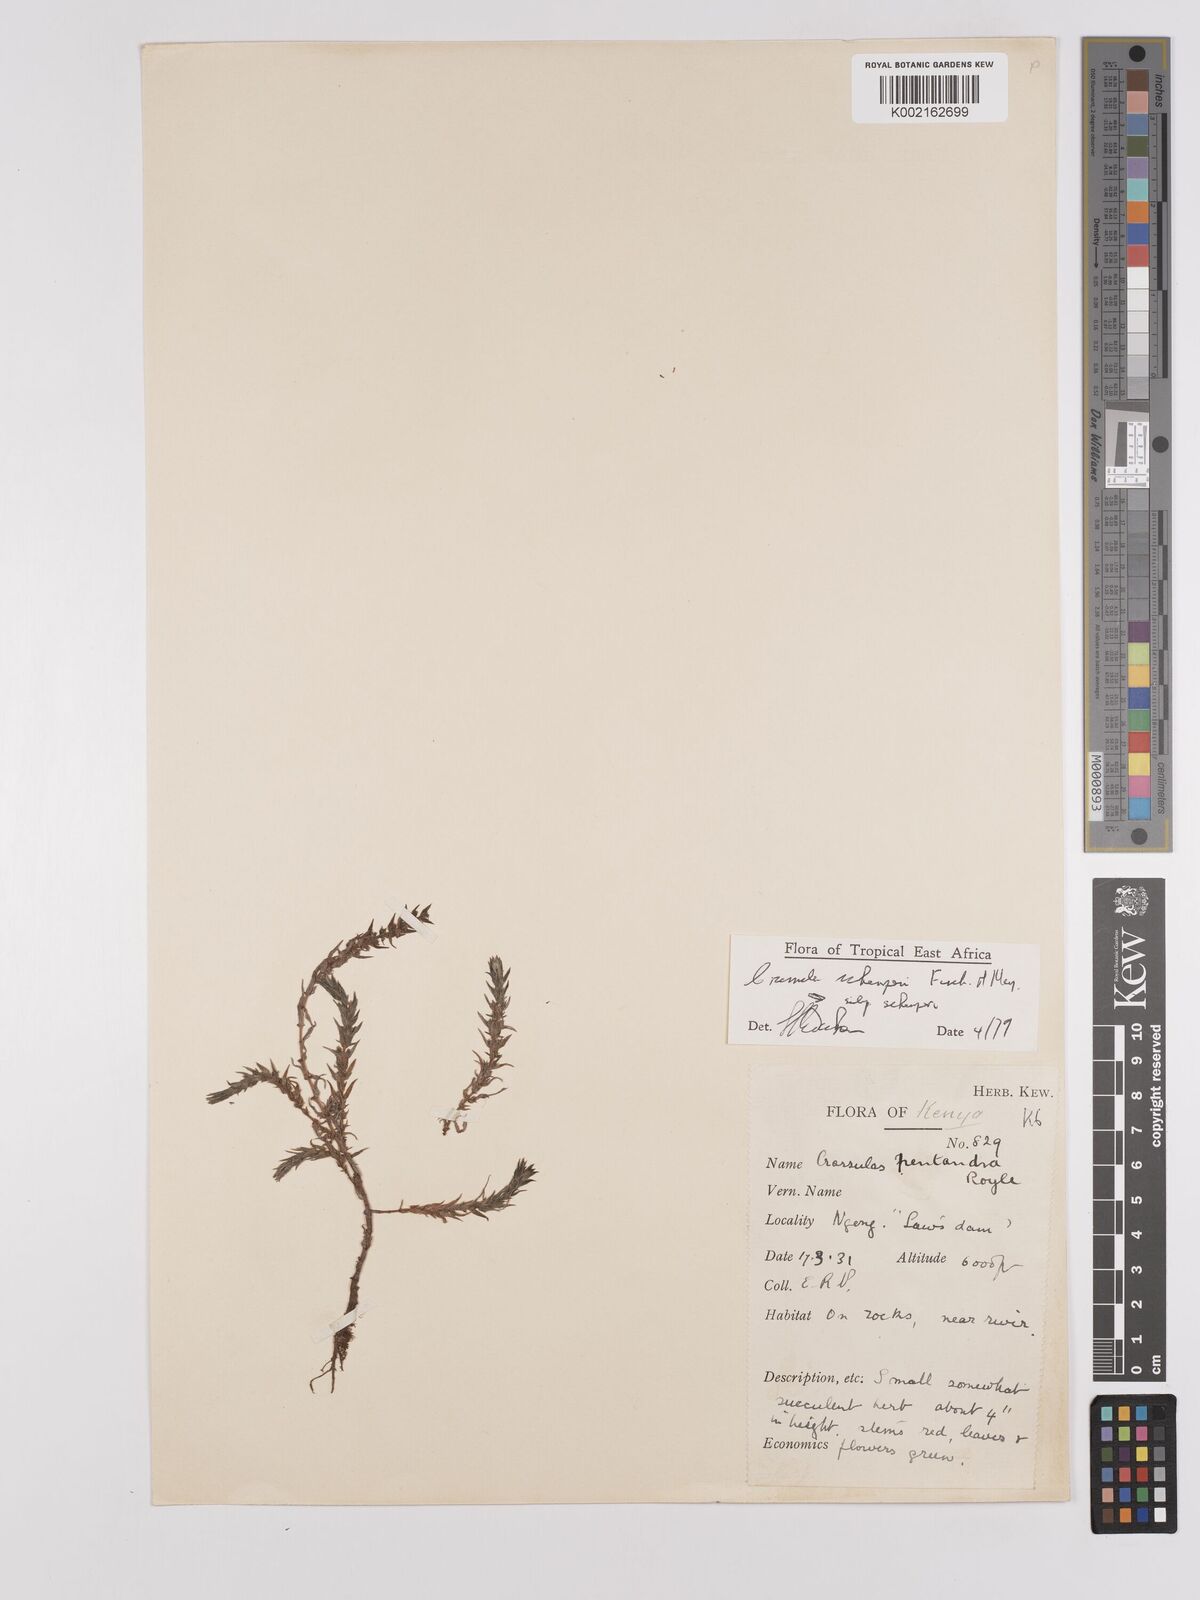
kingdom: Plantae
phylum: Tracheophyta
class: Magnoliopsida
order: Saxifragales
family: Crassulaceae
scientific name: Crassulaceae
